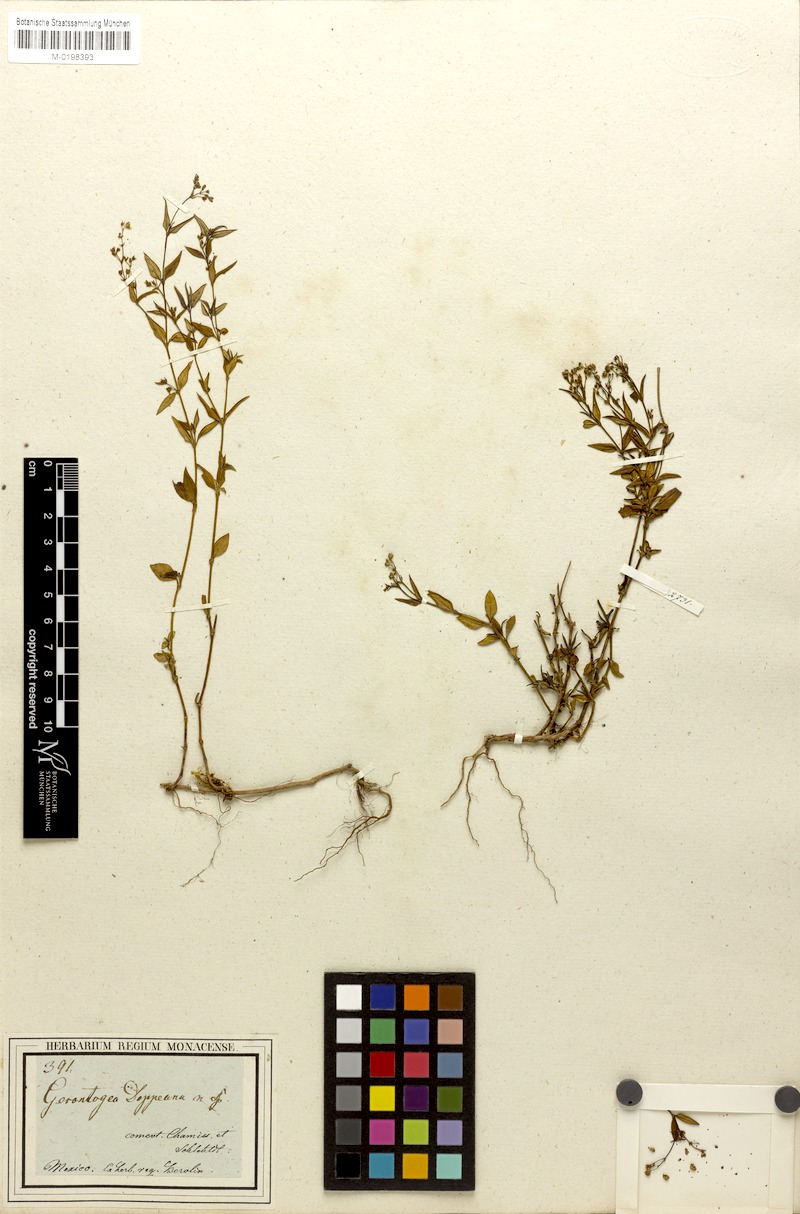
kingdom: Plantae
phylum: Tracheophyta
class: Magnoliopsida
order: Gentianales
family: Rubiaceae
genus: Oldenlandia
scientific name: Oldenlandia microtheca
